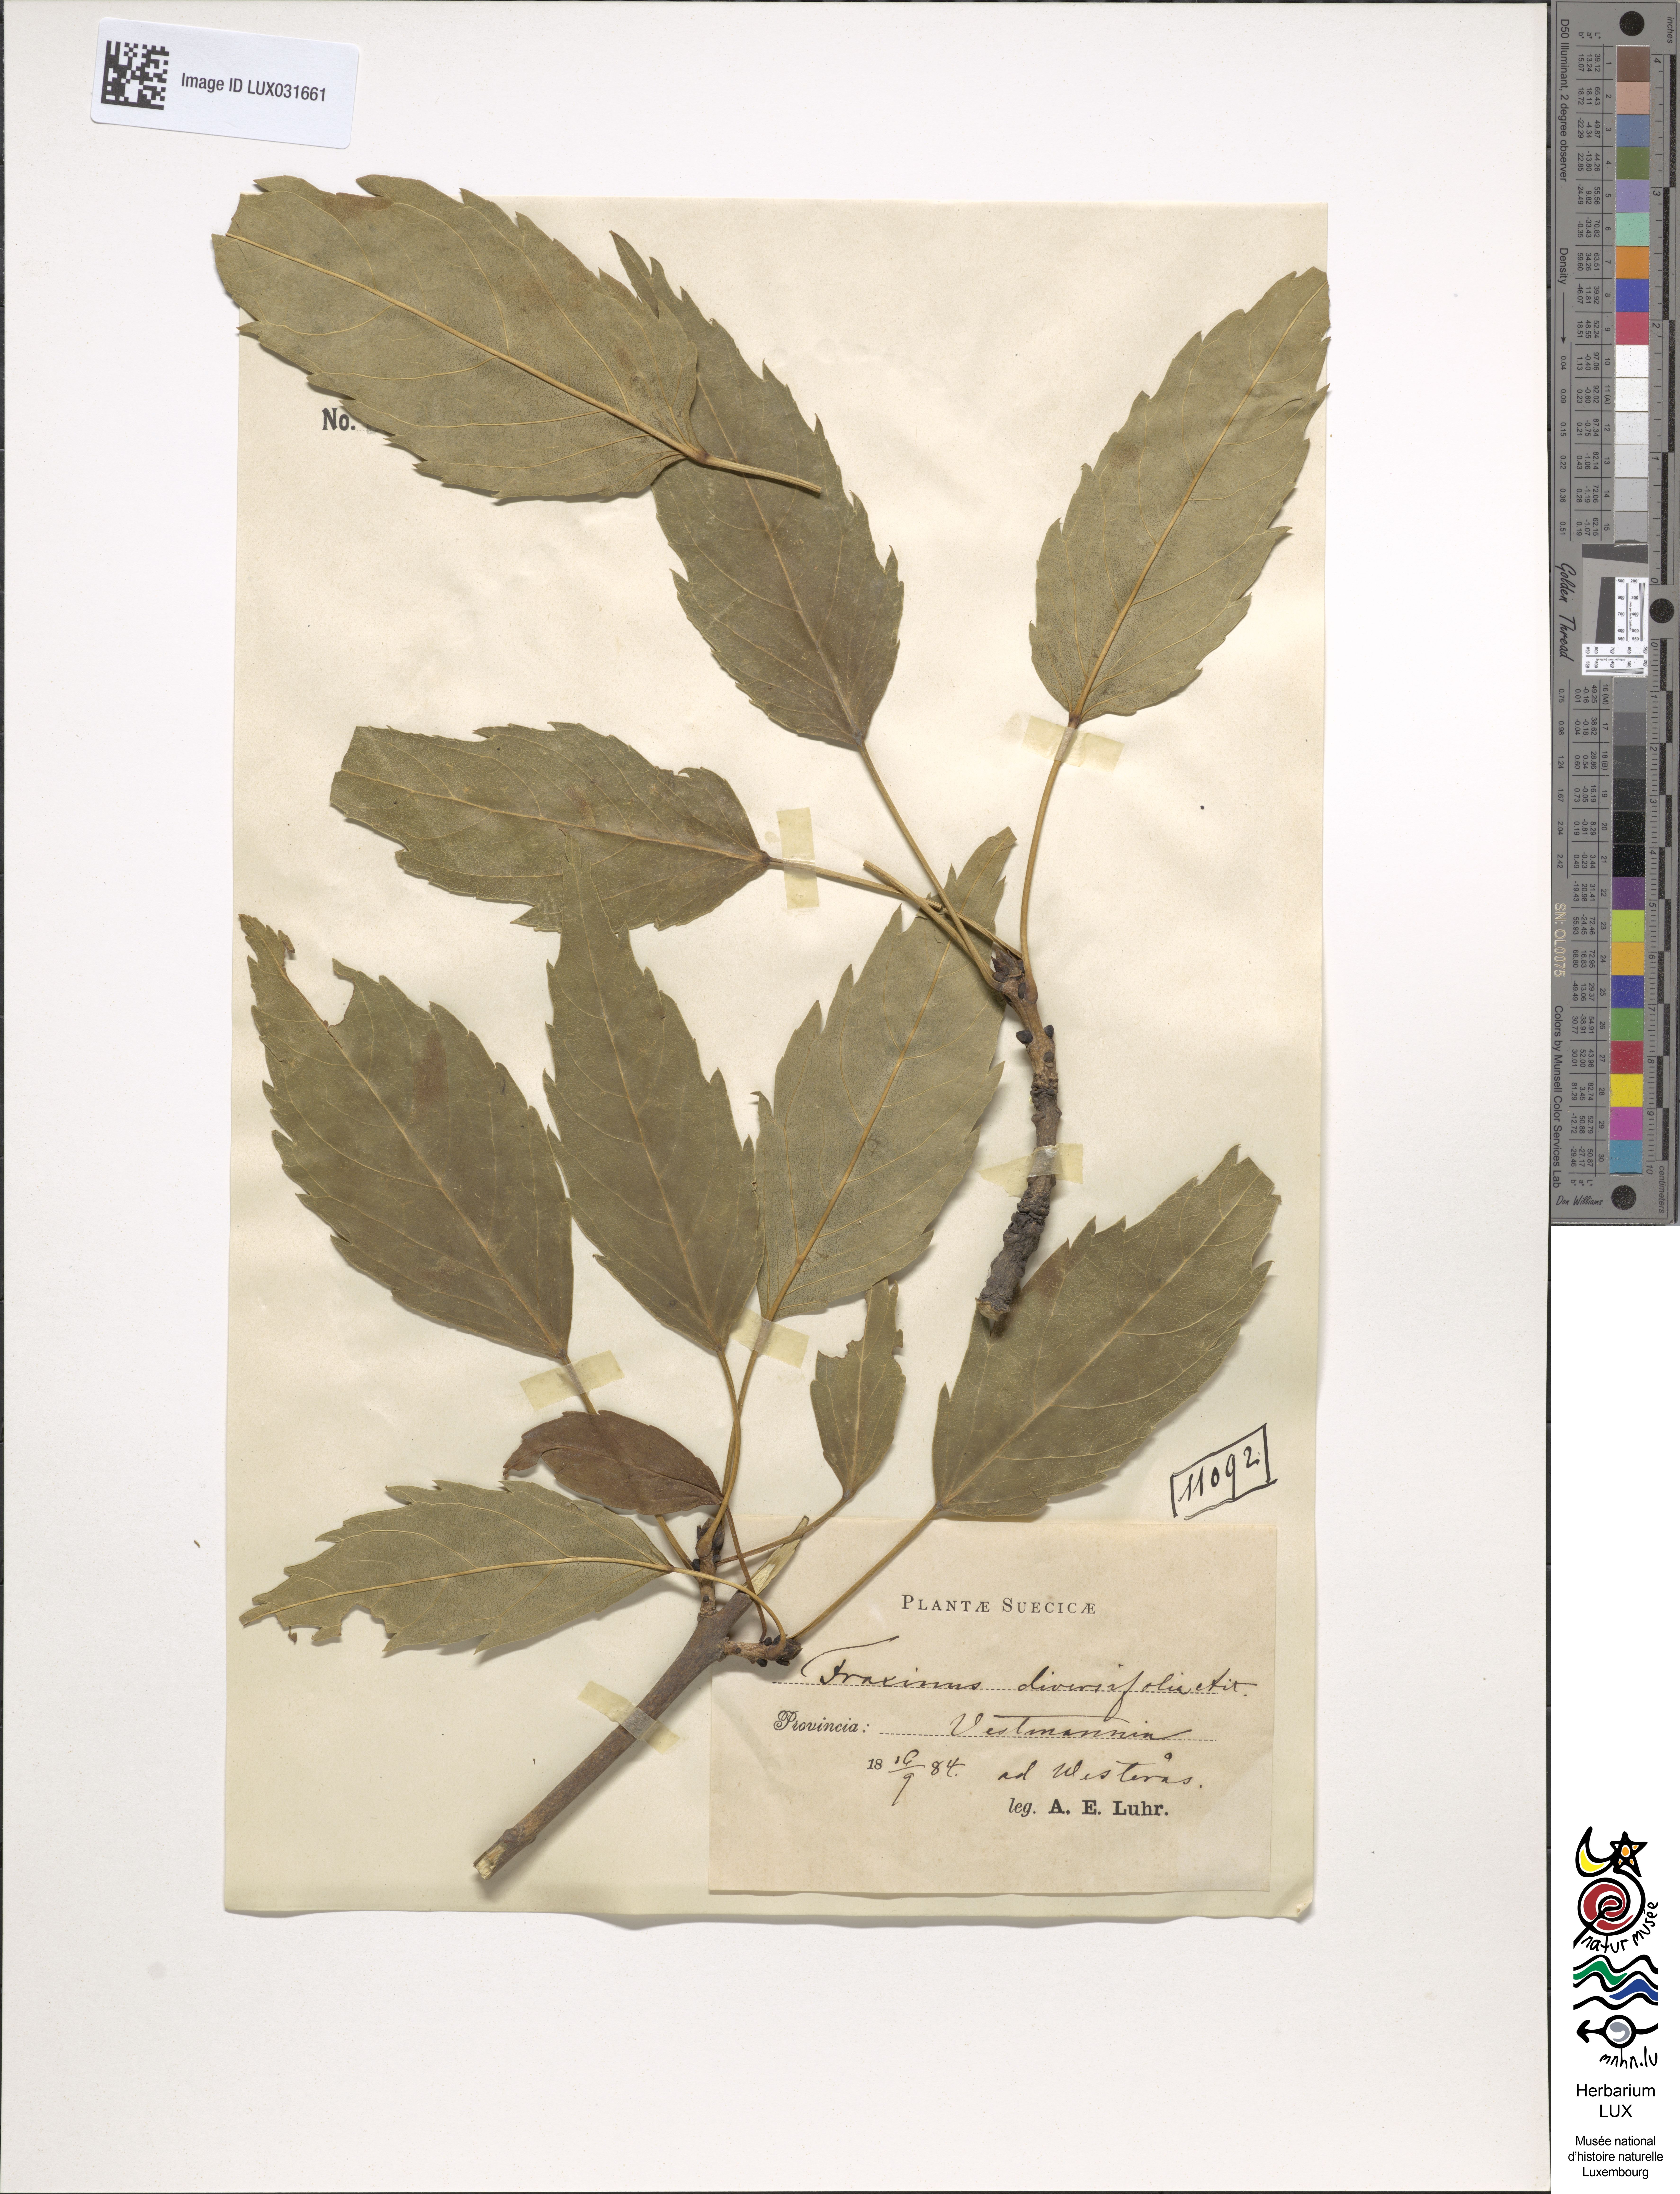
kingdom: Plantae
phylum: Tracheophyta
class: Magnoliopsida
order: Lamiales
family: Oleaceae
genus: Fraxinus
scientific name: Fraxinus excelsior
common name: European ash
